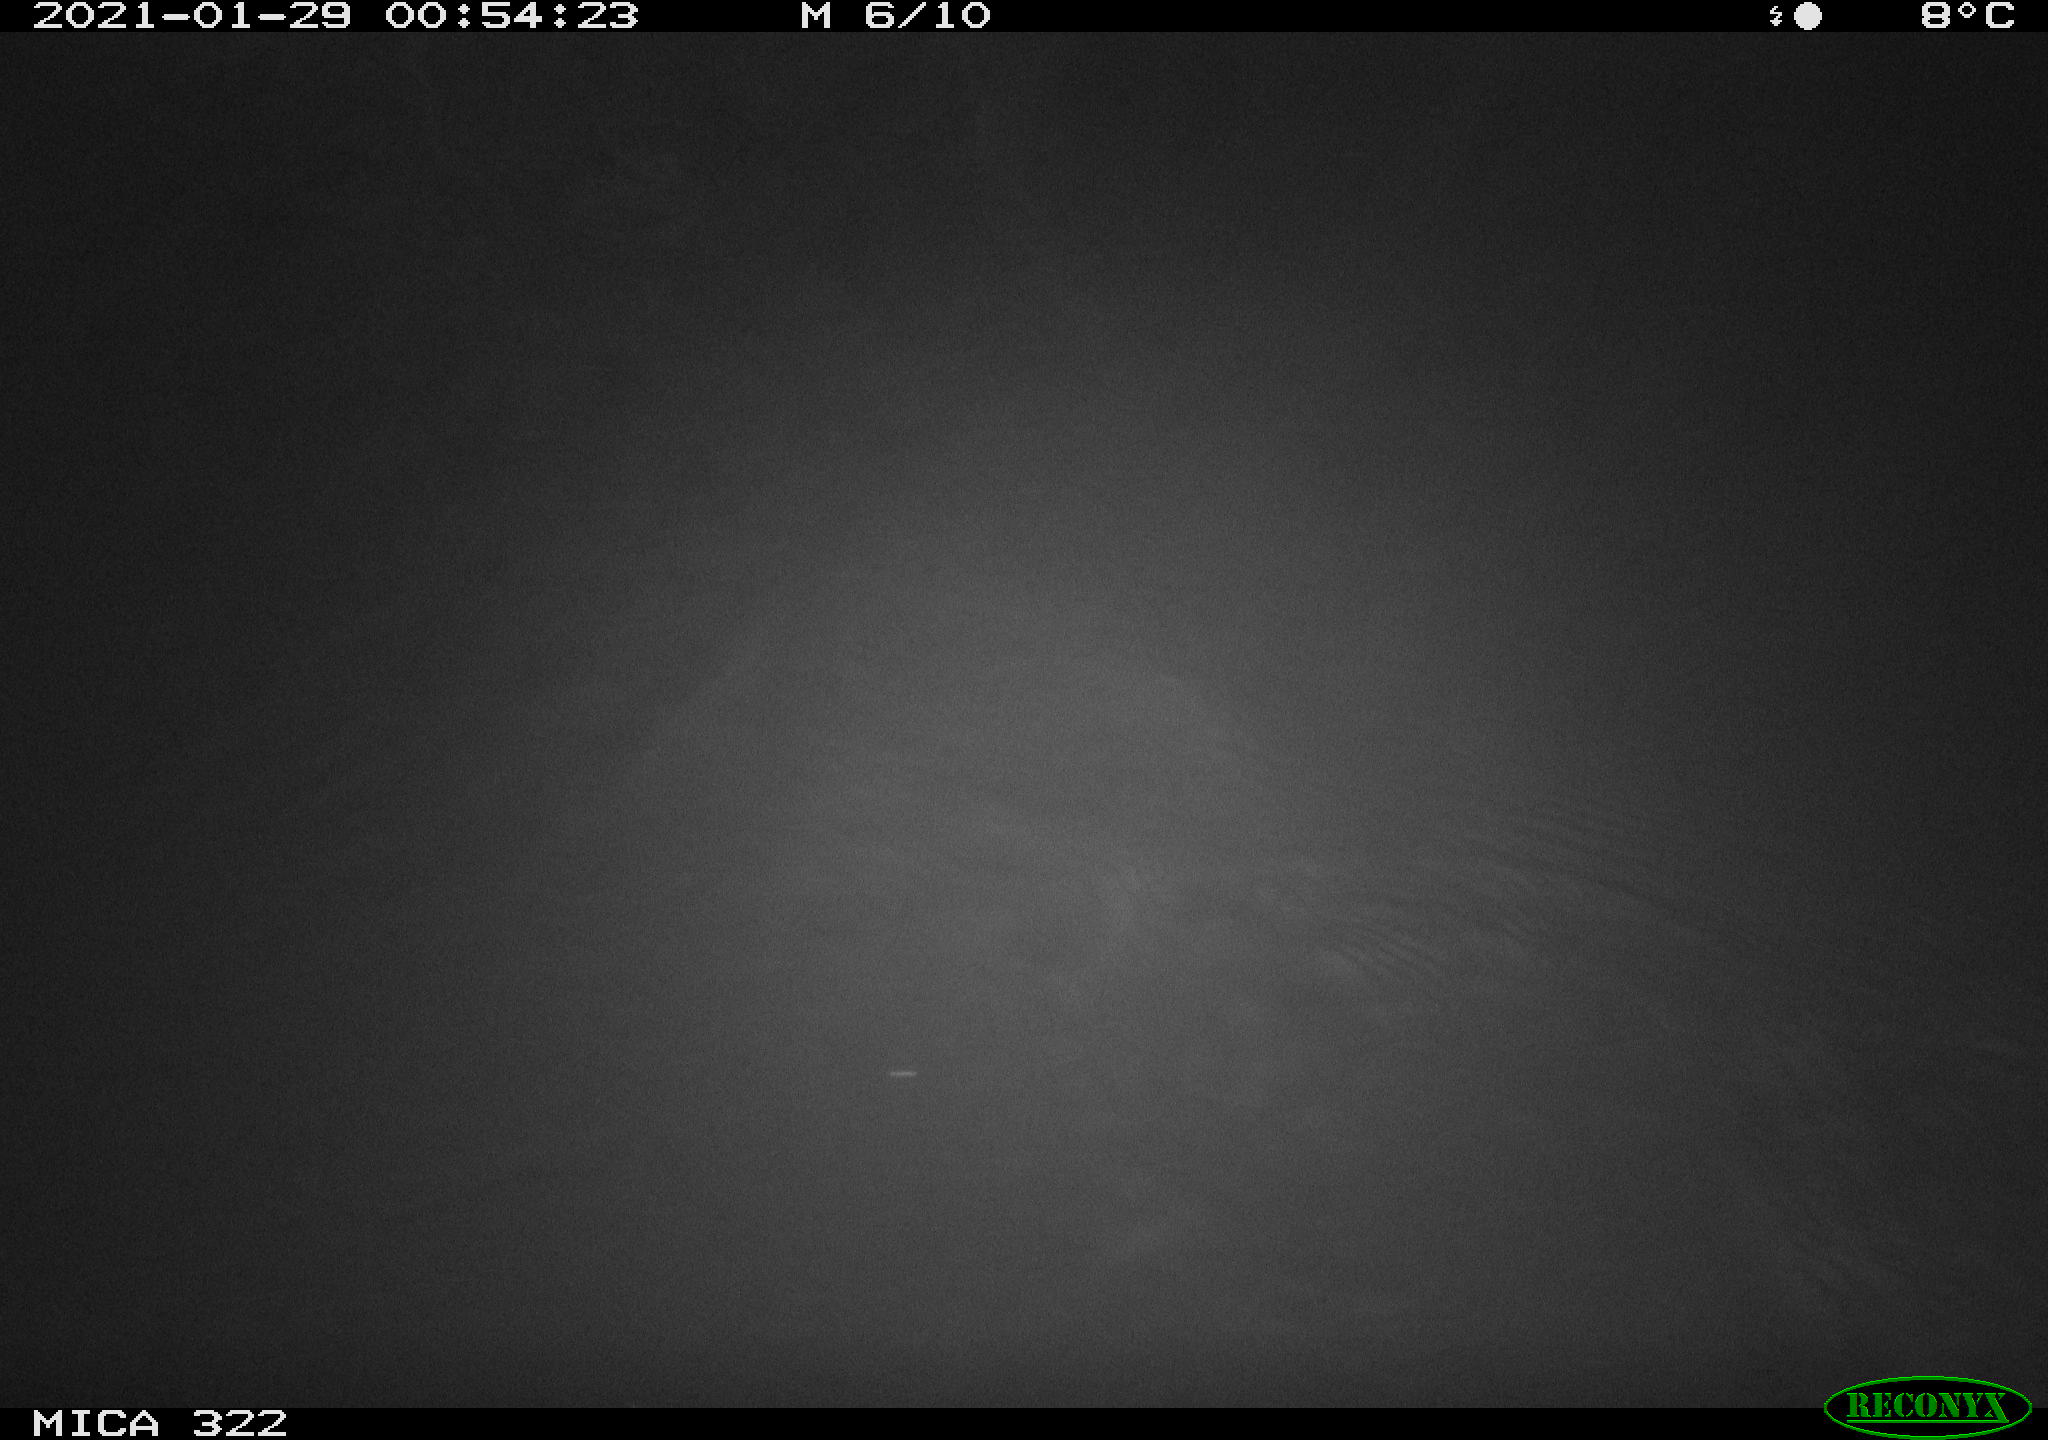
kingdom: Animalia
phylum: Chordata
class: Mammalia
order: Rodentia
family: Muridae
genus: Rattus
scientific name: Rattus norvegicus
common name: Brown rat
